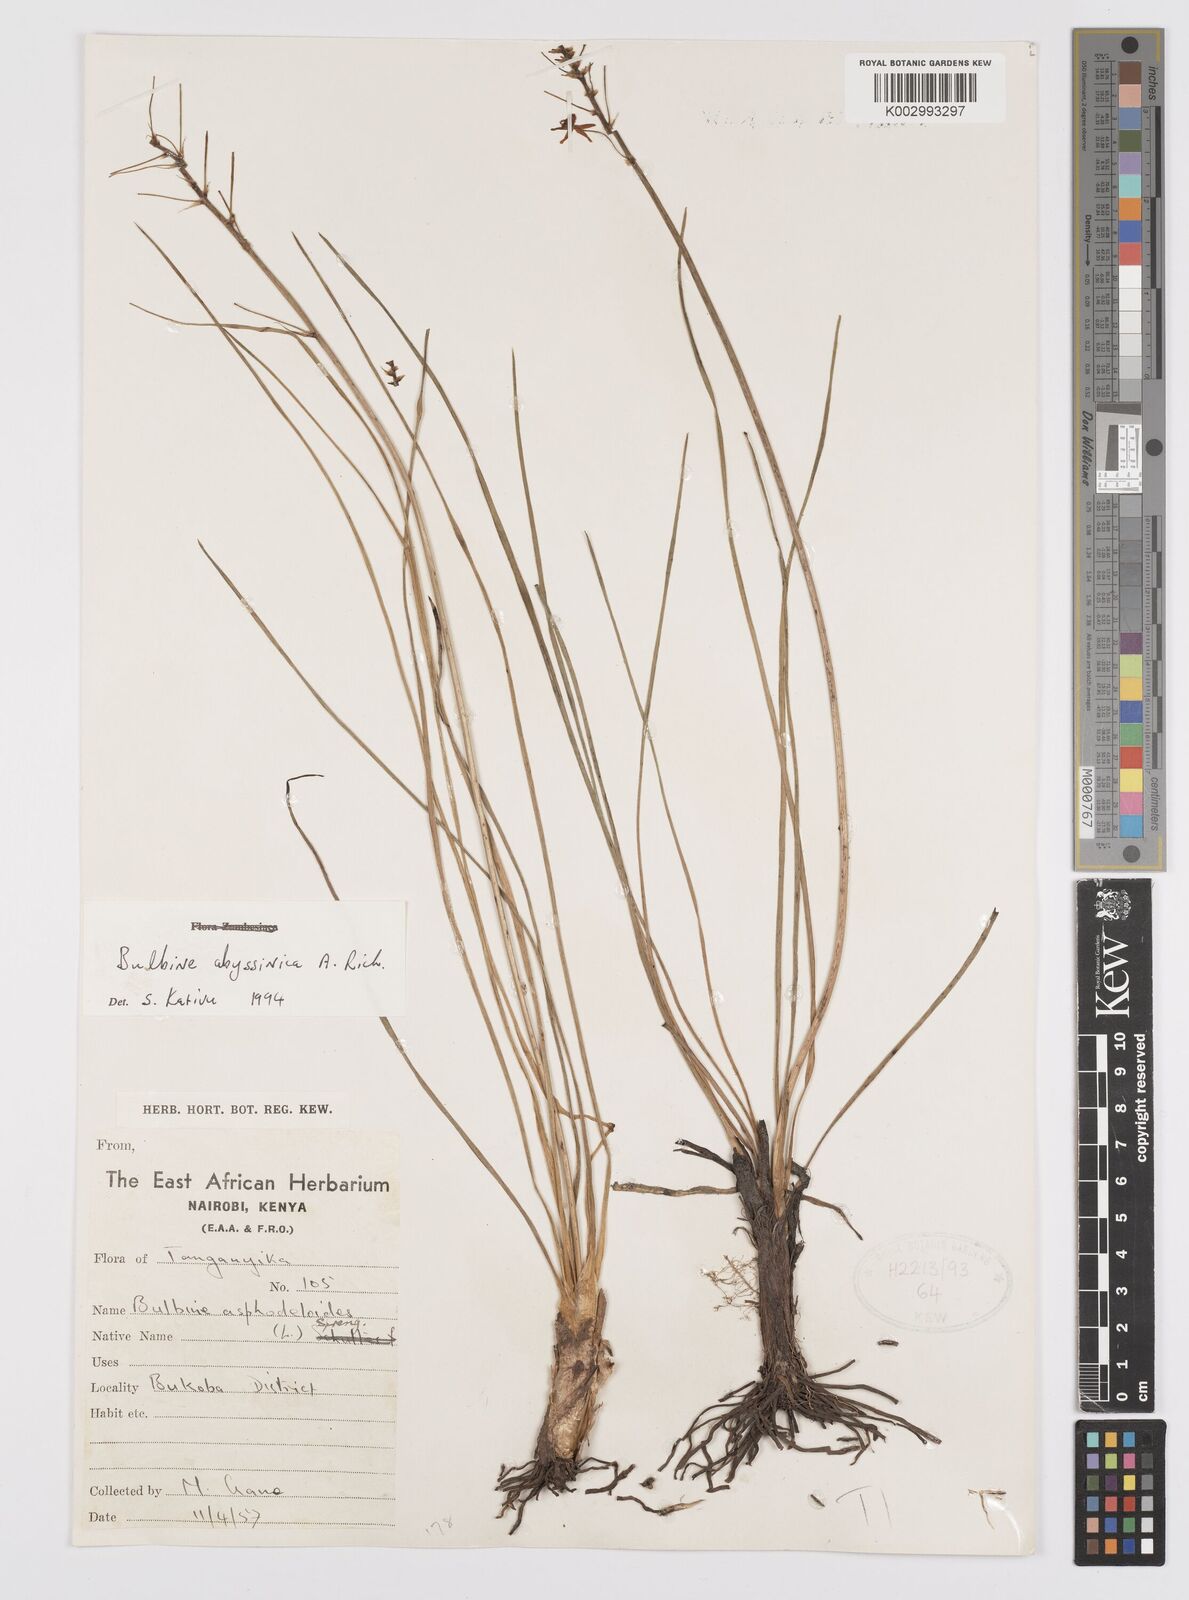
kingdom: Plantae
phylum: Tracheophyta
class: Liliopsida
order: Asparagales
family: Asphodelaceae
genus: Bulbine
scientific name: Bulbine abyssinica
